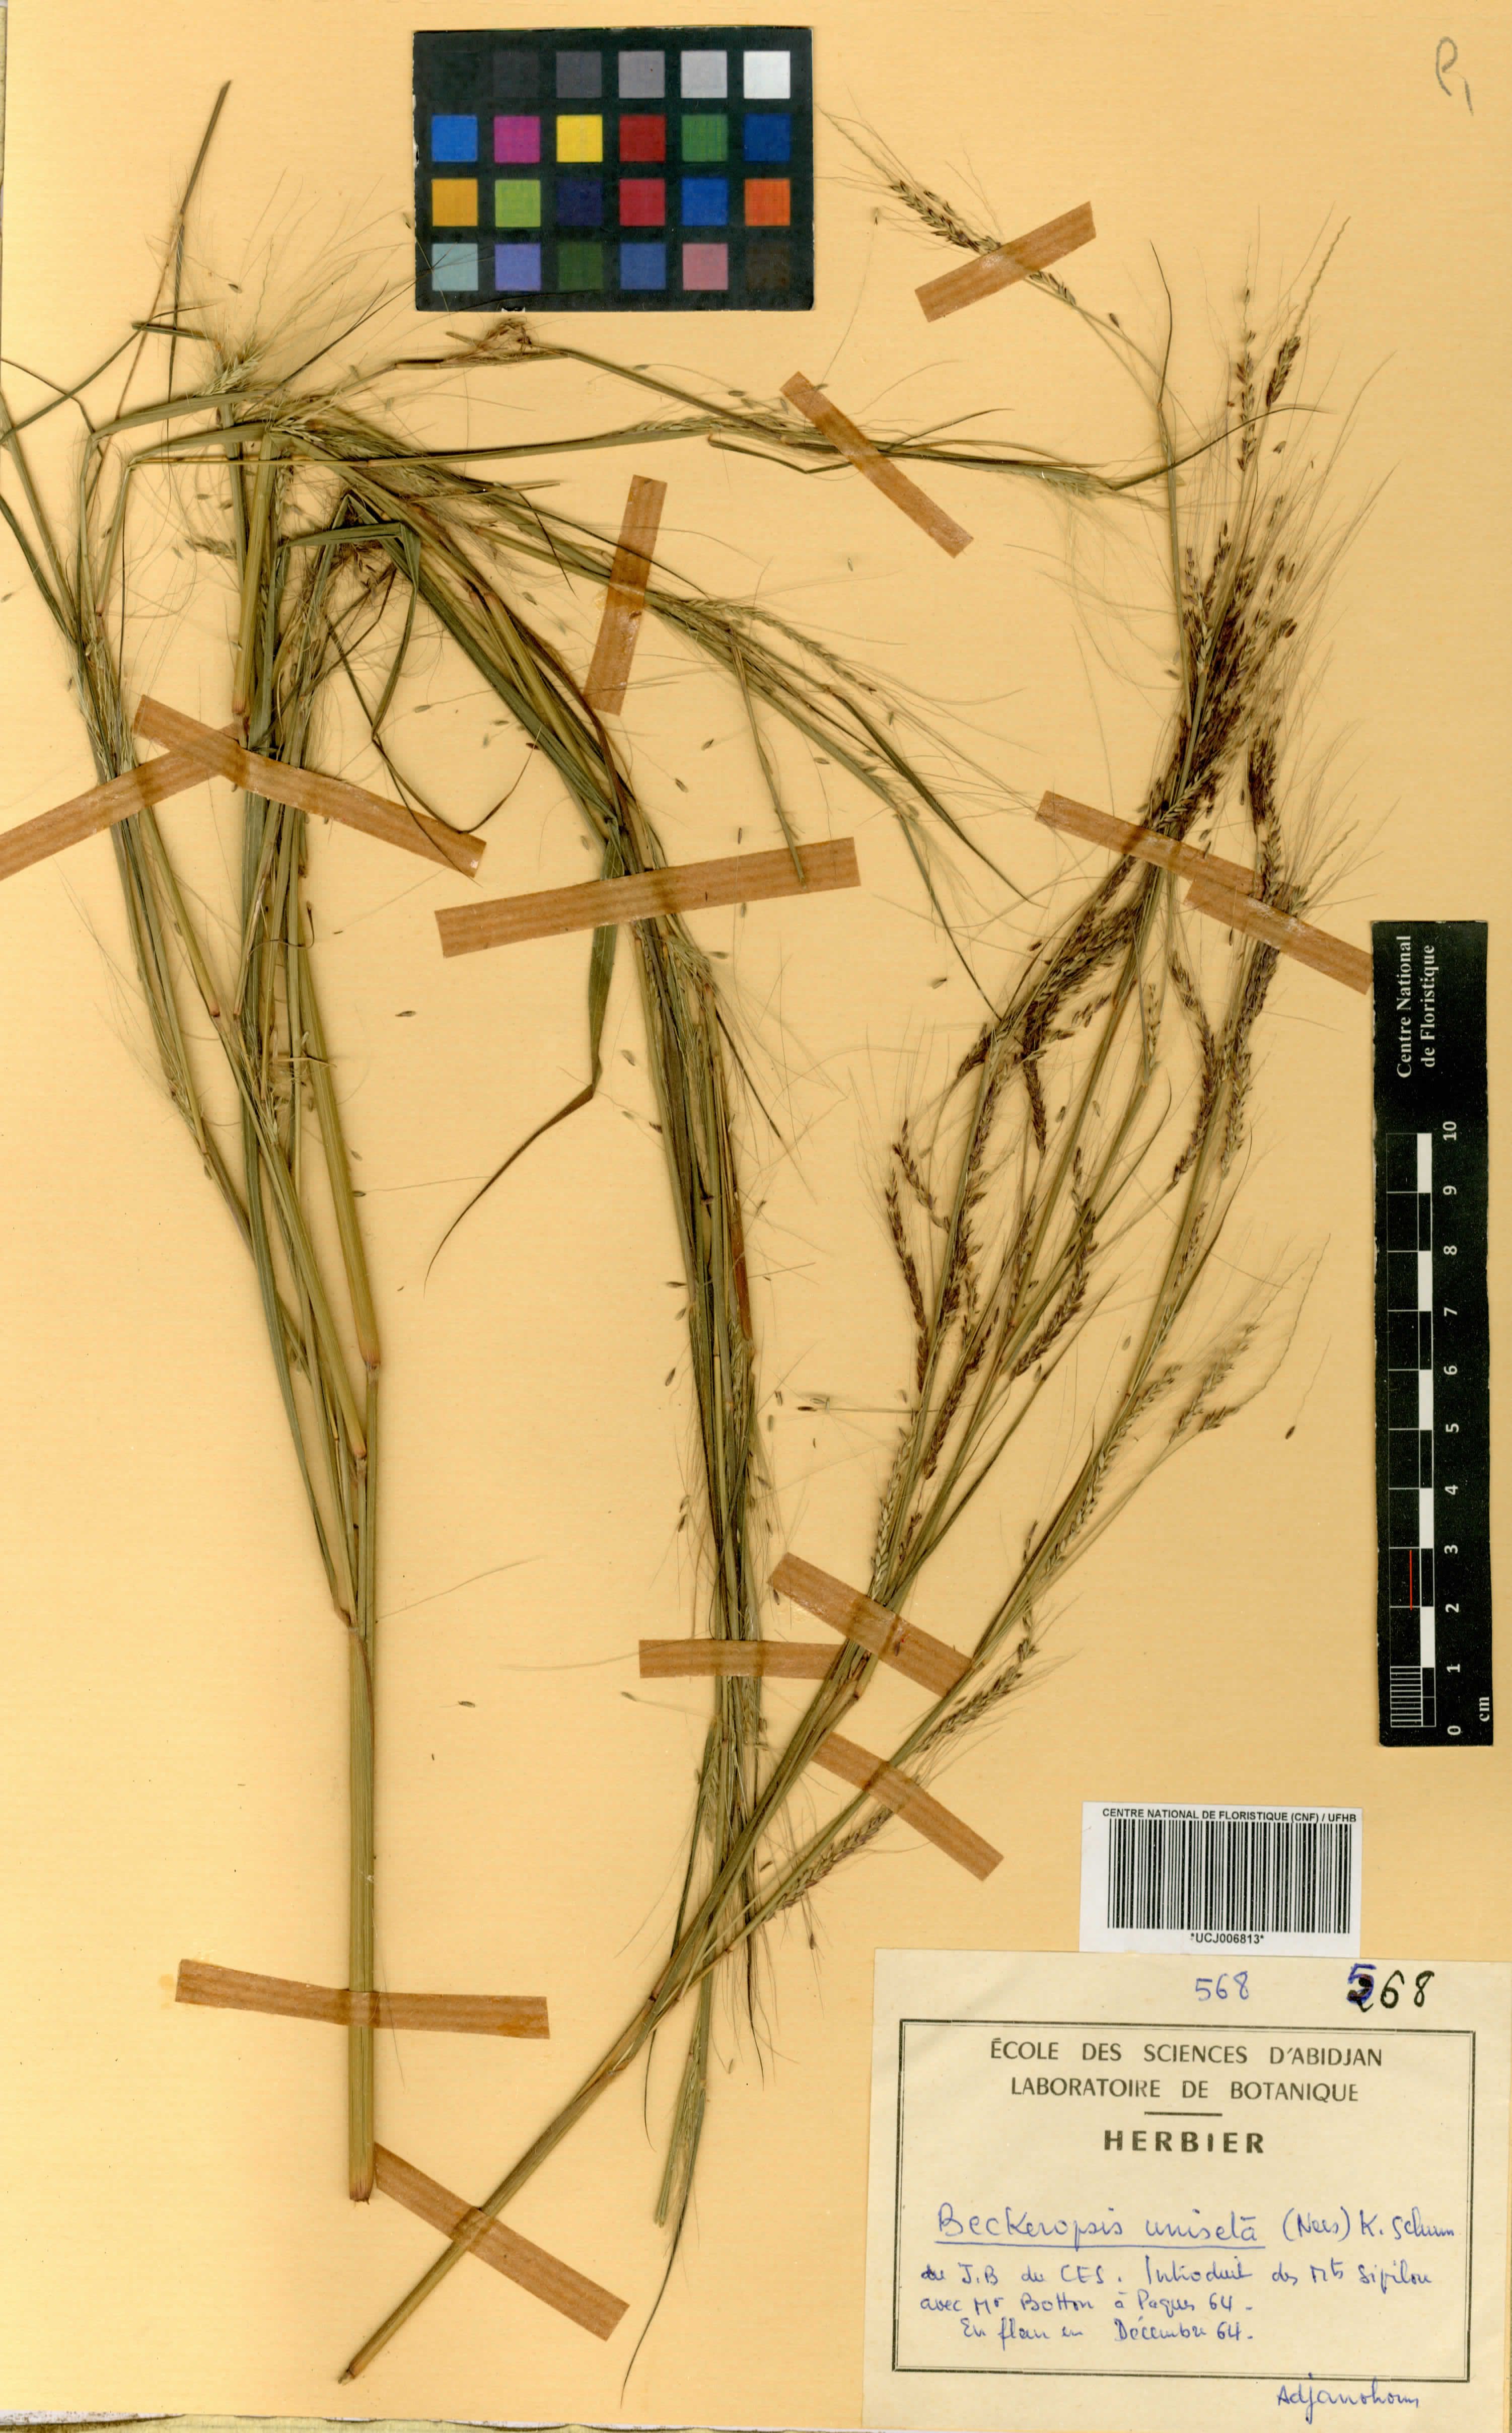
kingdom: Plantae
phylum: Tracheophyta
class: Liliopsida
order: Poales
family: Poaceae
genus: Cenchrus
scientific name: Cenchrus unisetus
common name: Natal grass
